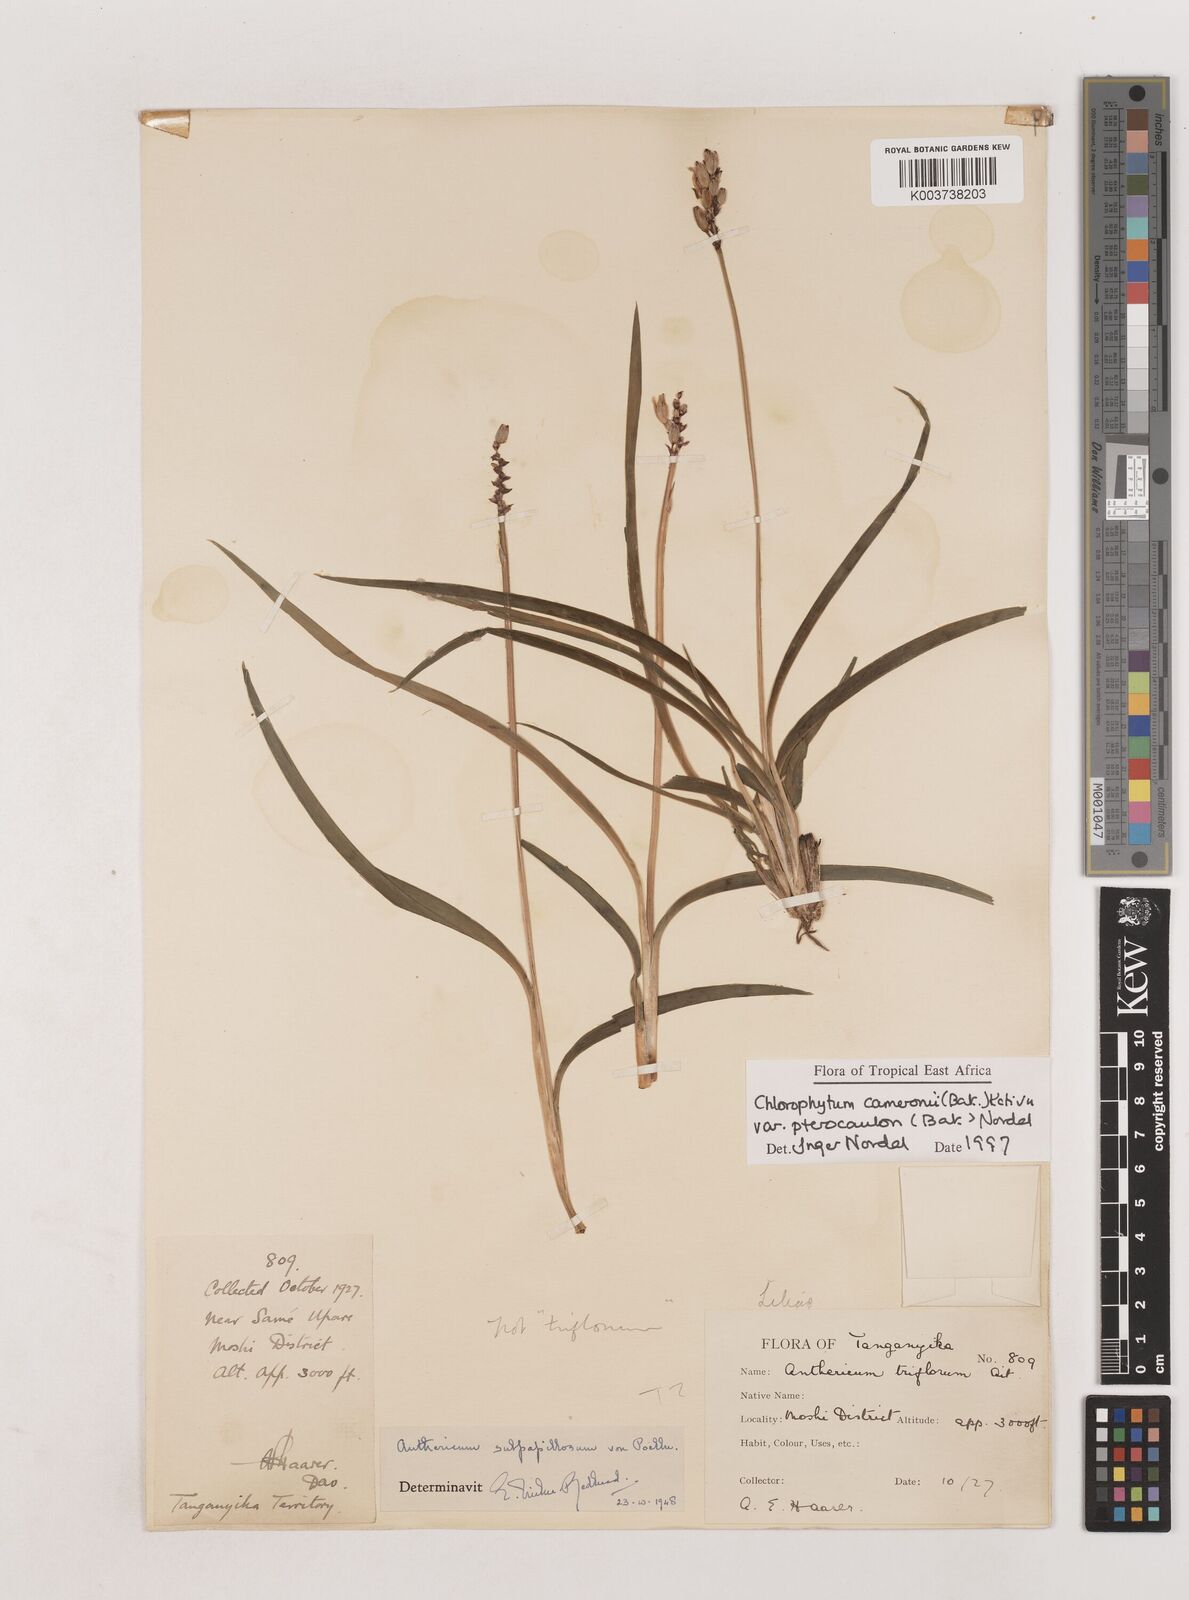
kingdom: Plantae
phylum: Tracheophyta
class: Liliopsida
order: Asparagales
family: Asparagaceae
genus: Chlorophytum
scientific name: Chlorophytum cameronii
